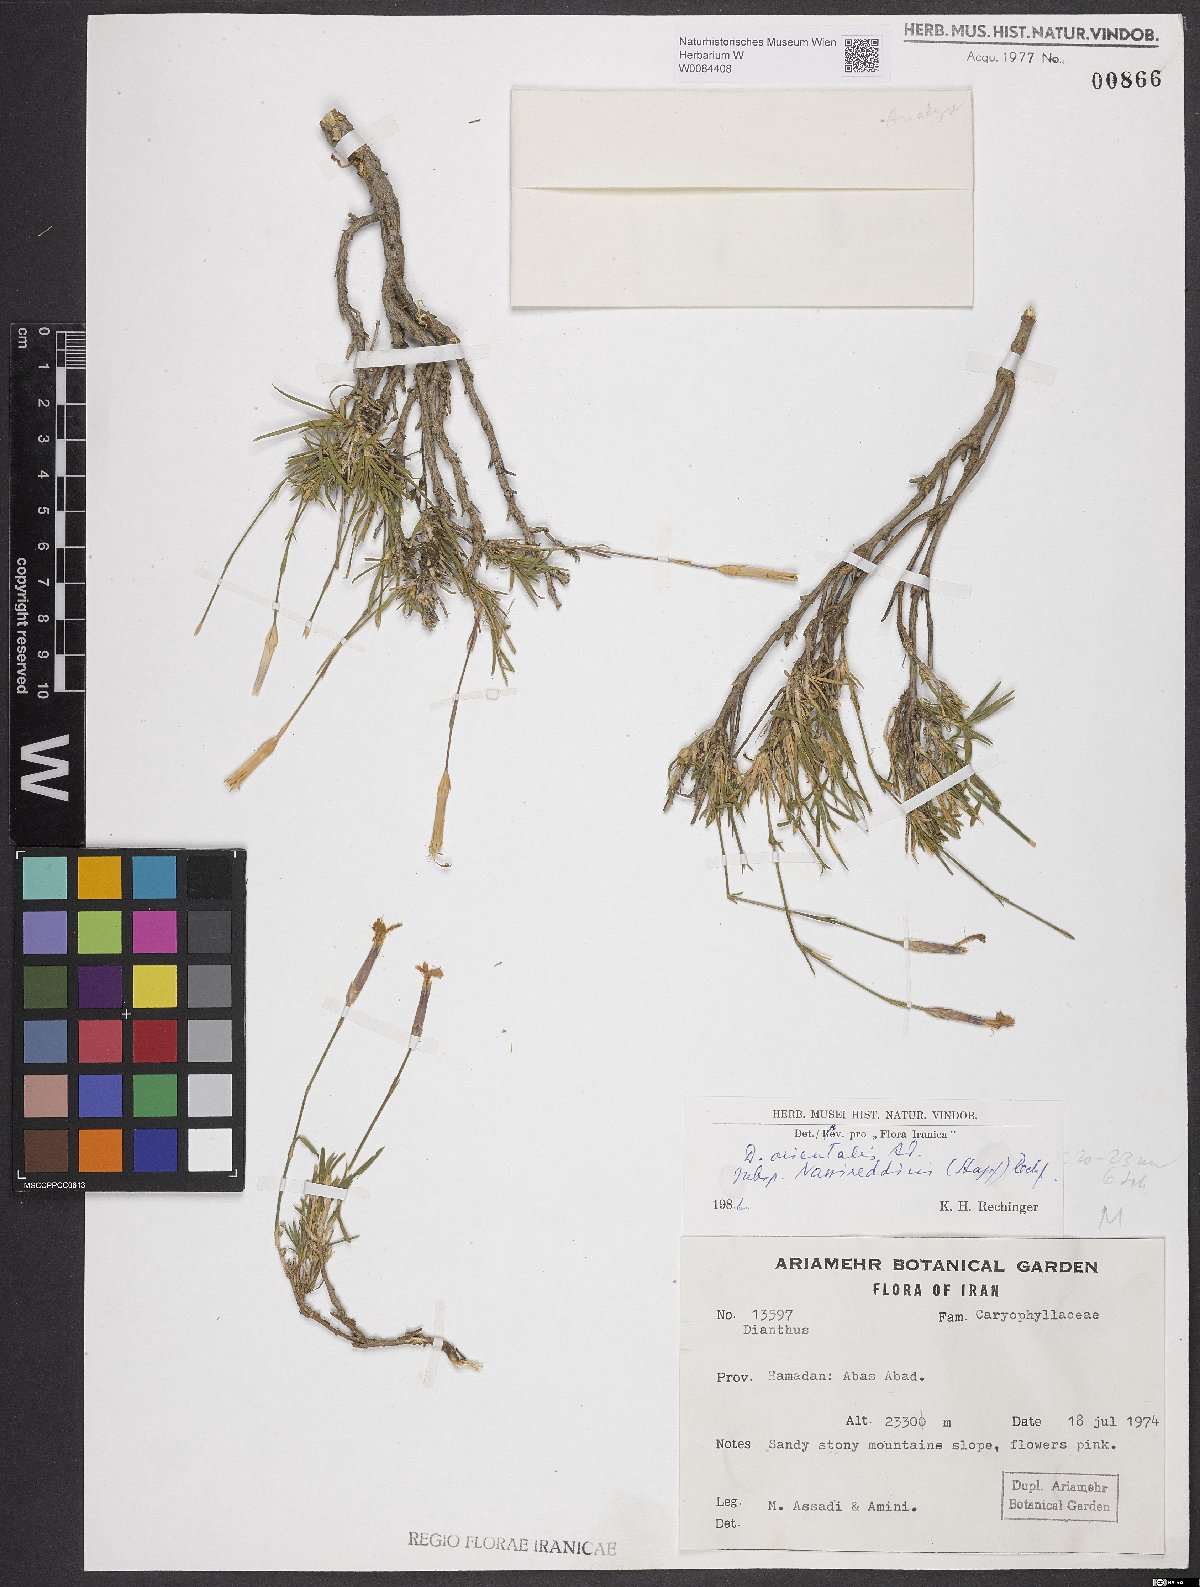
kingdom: Plantae
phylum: Tracheophyta
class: Magnoliopsida
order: Caryophyllales
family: Caryophyllaceae
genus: Dianthus
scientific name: Dianthus orientalis
